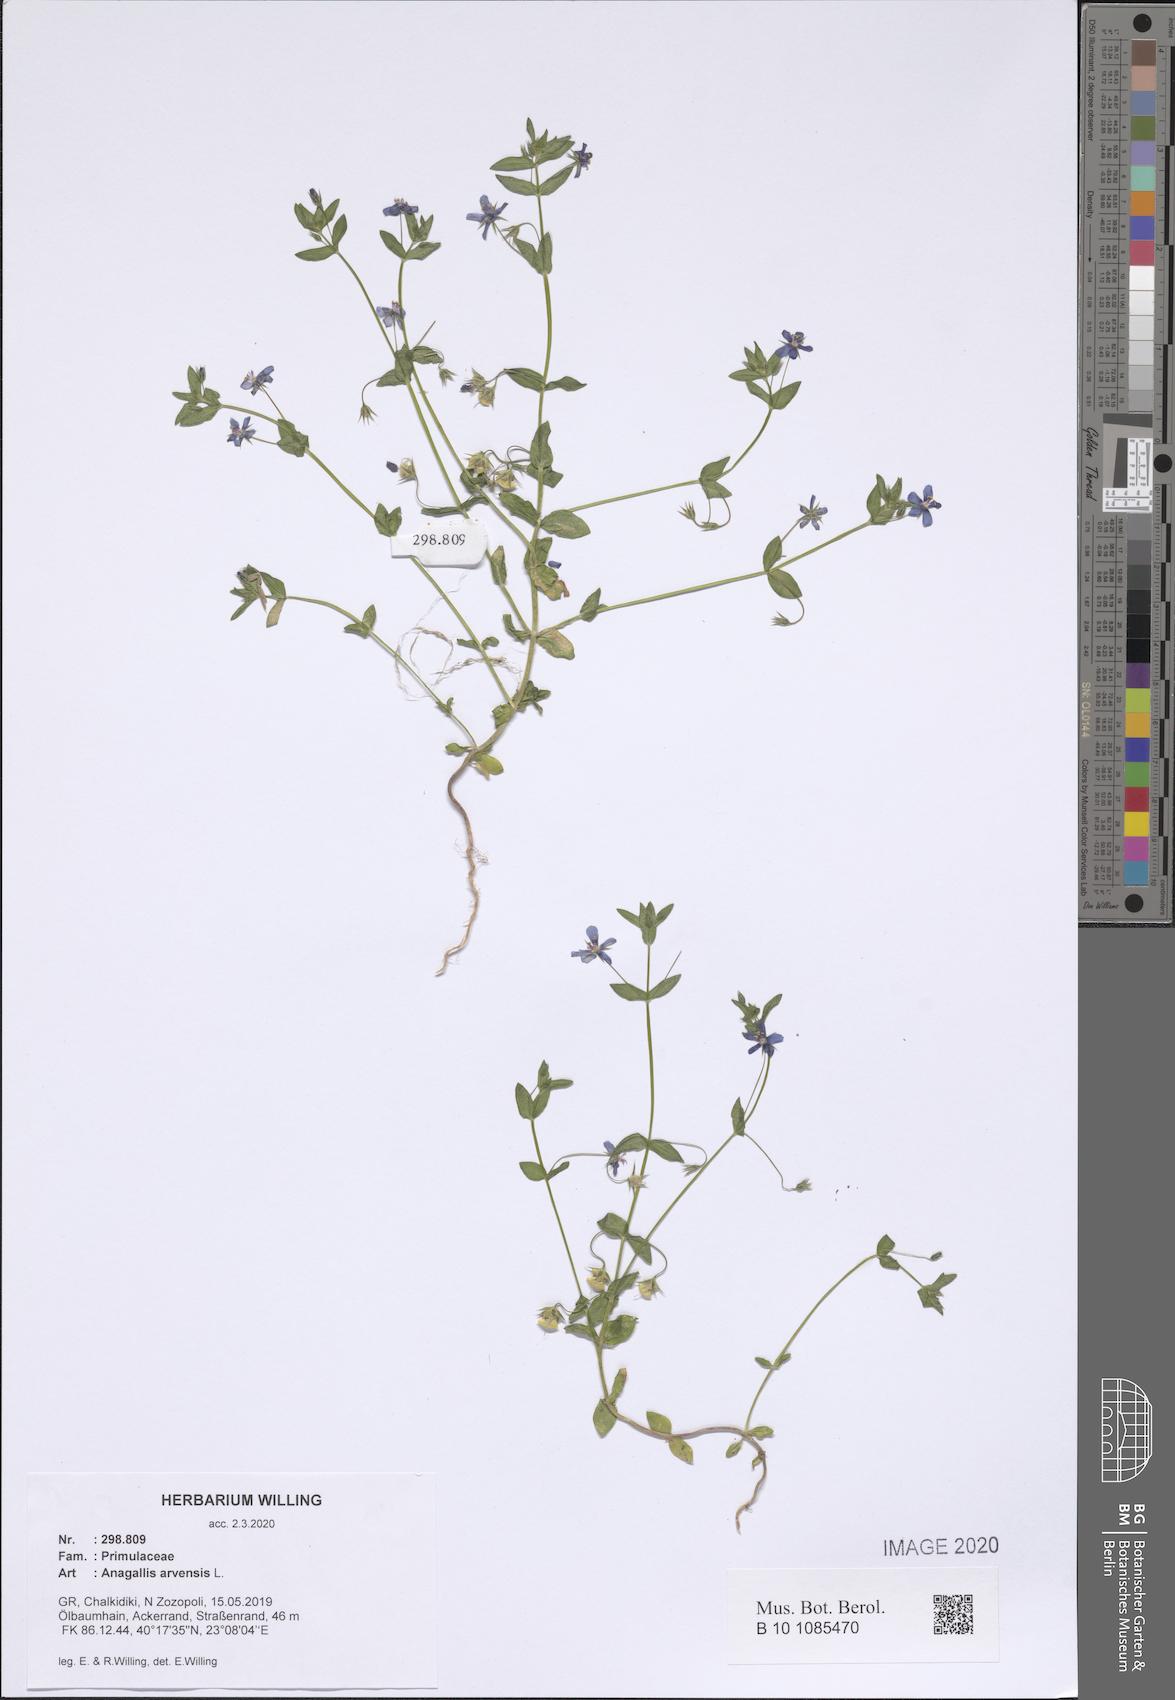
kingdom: Plantae
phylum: Tracheophyta
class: Magnoliopsida
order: Ericales
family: Primulaceae
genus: Lysimachia
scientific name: Lysimachia arvensis
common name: Scarlet pimpernel
